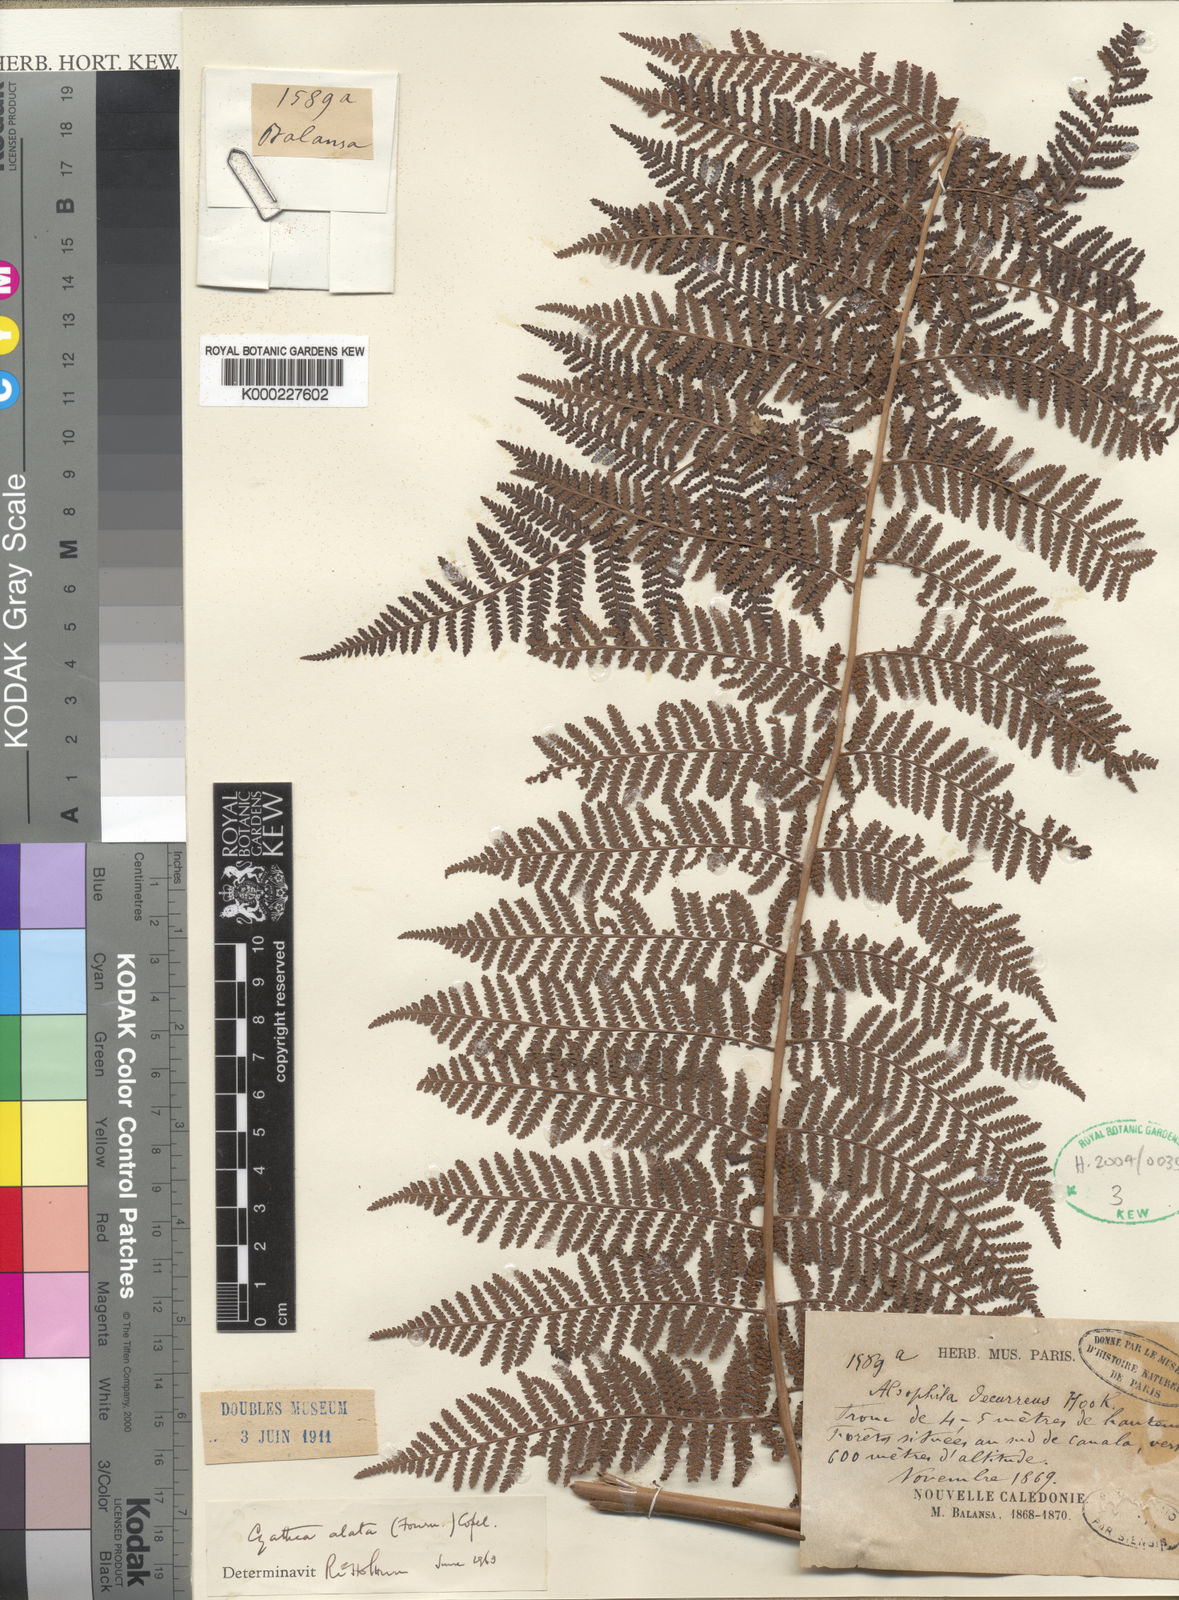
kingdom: Plantae
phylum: Tracheophyta
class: Polypodiopsida
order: Cyatheales
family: Cyatheaceae
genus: Cyathea
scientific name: Cyathea alata
